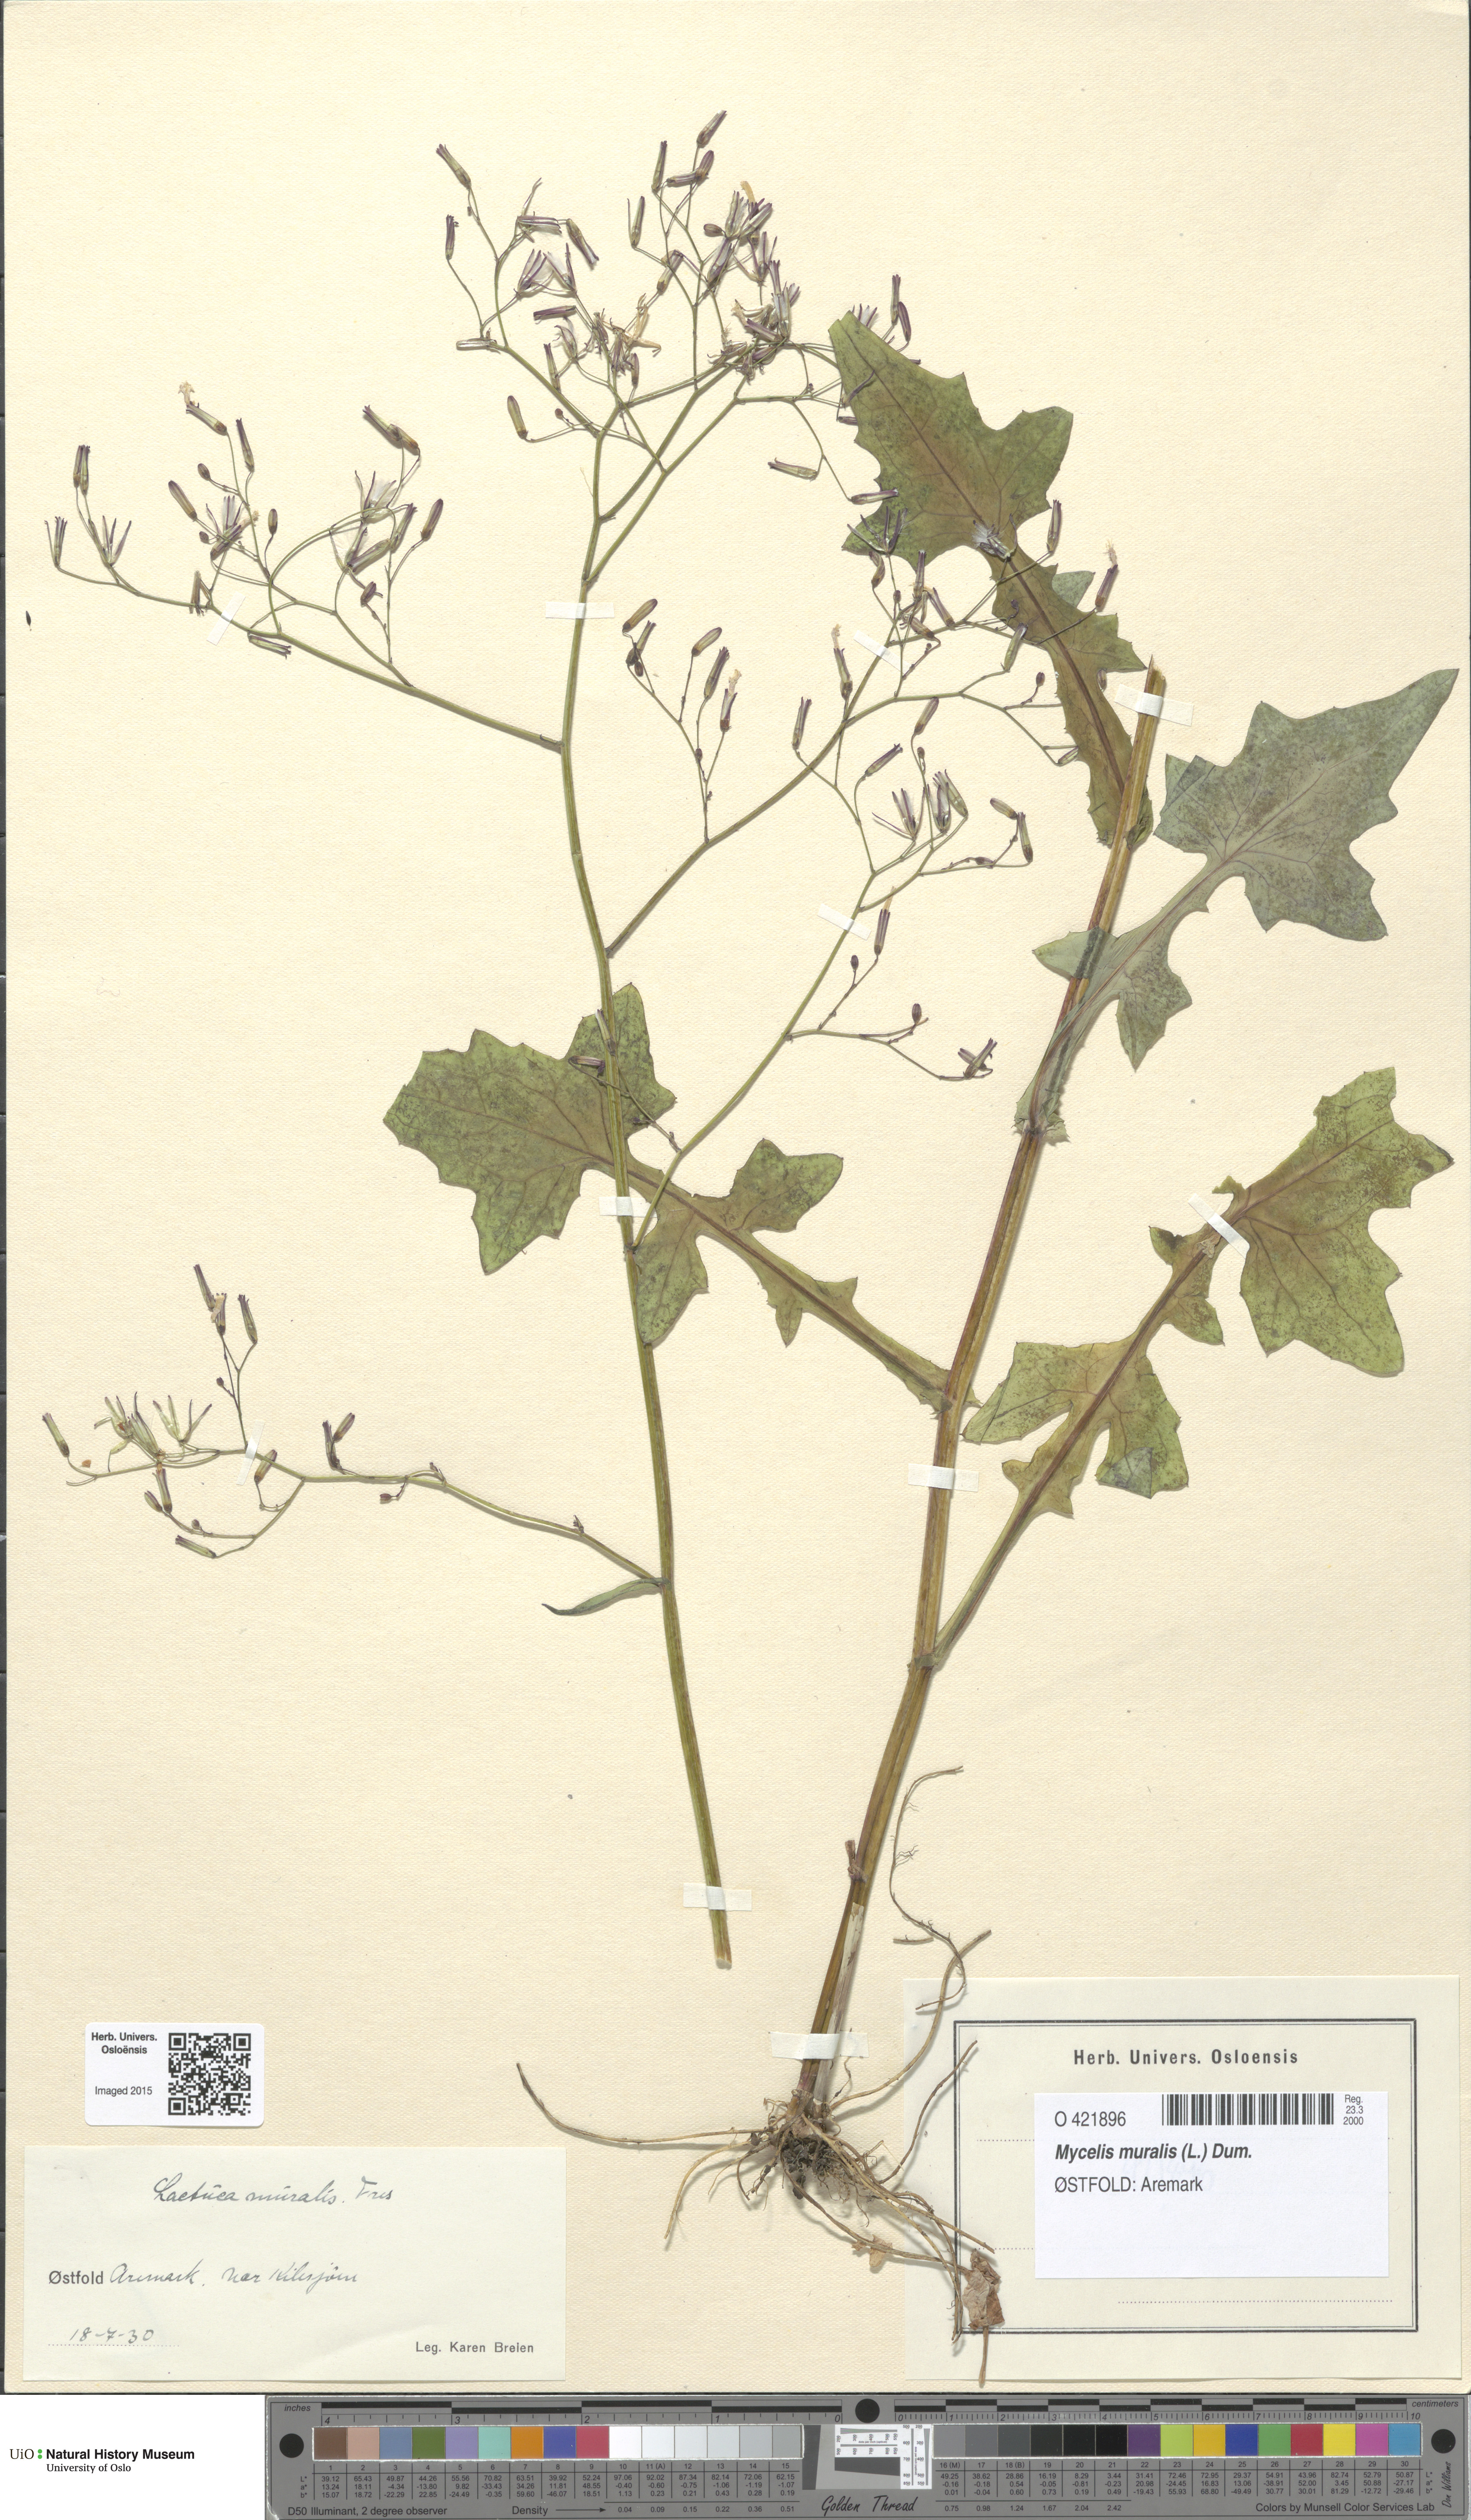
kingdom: Plantae
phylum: Tracheophyta
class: Magnoliopsida
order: Asterales
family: Asteraceae
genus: Mycelis
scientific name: Mycelis muralis
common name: Wall lettuce
